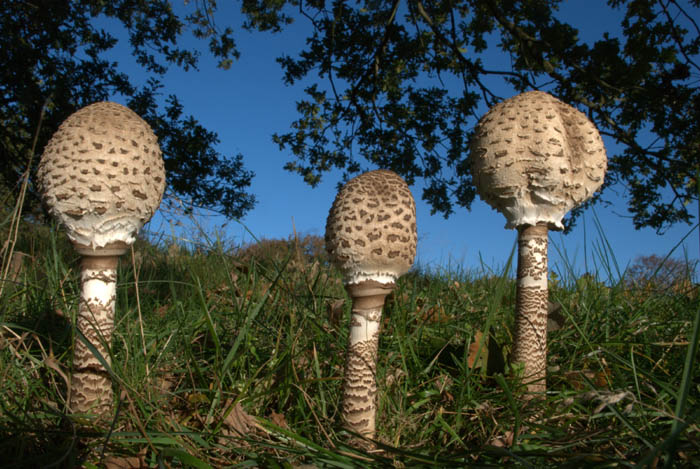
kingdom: Fungi
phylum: Basidiomycota
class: Agaricomycetes
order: Agaricales
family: Agaricaceae
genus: Macrolepiota
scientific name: Macrolepiota procera
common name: stor kæmpeparasolhat
